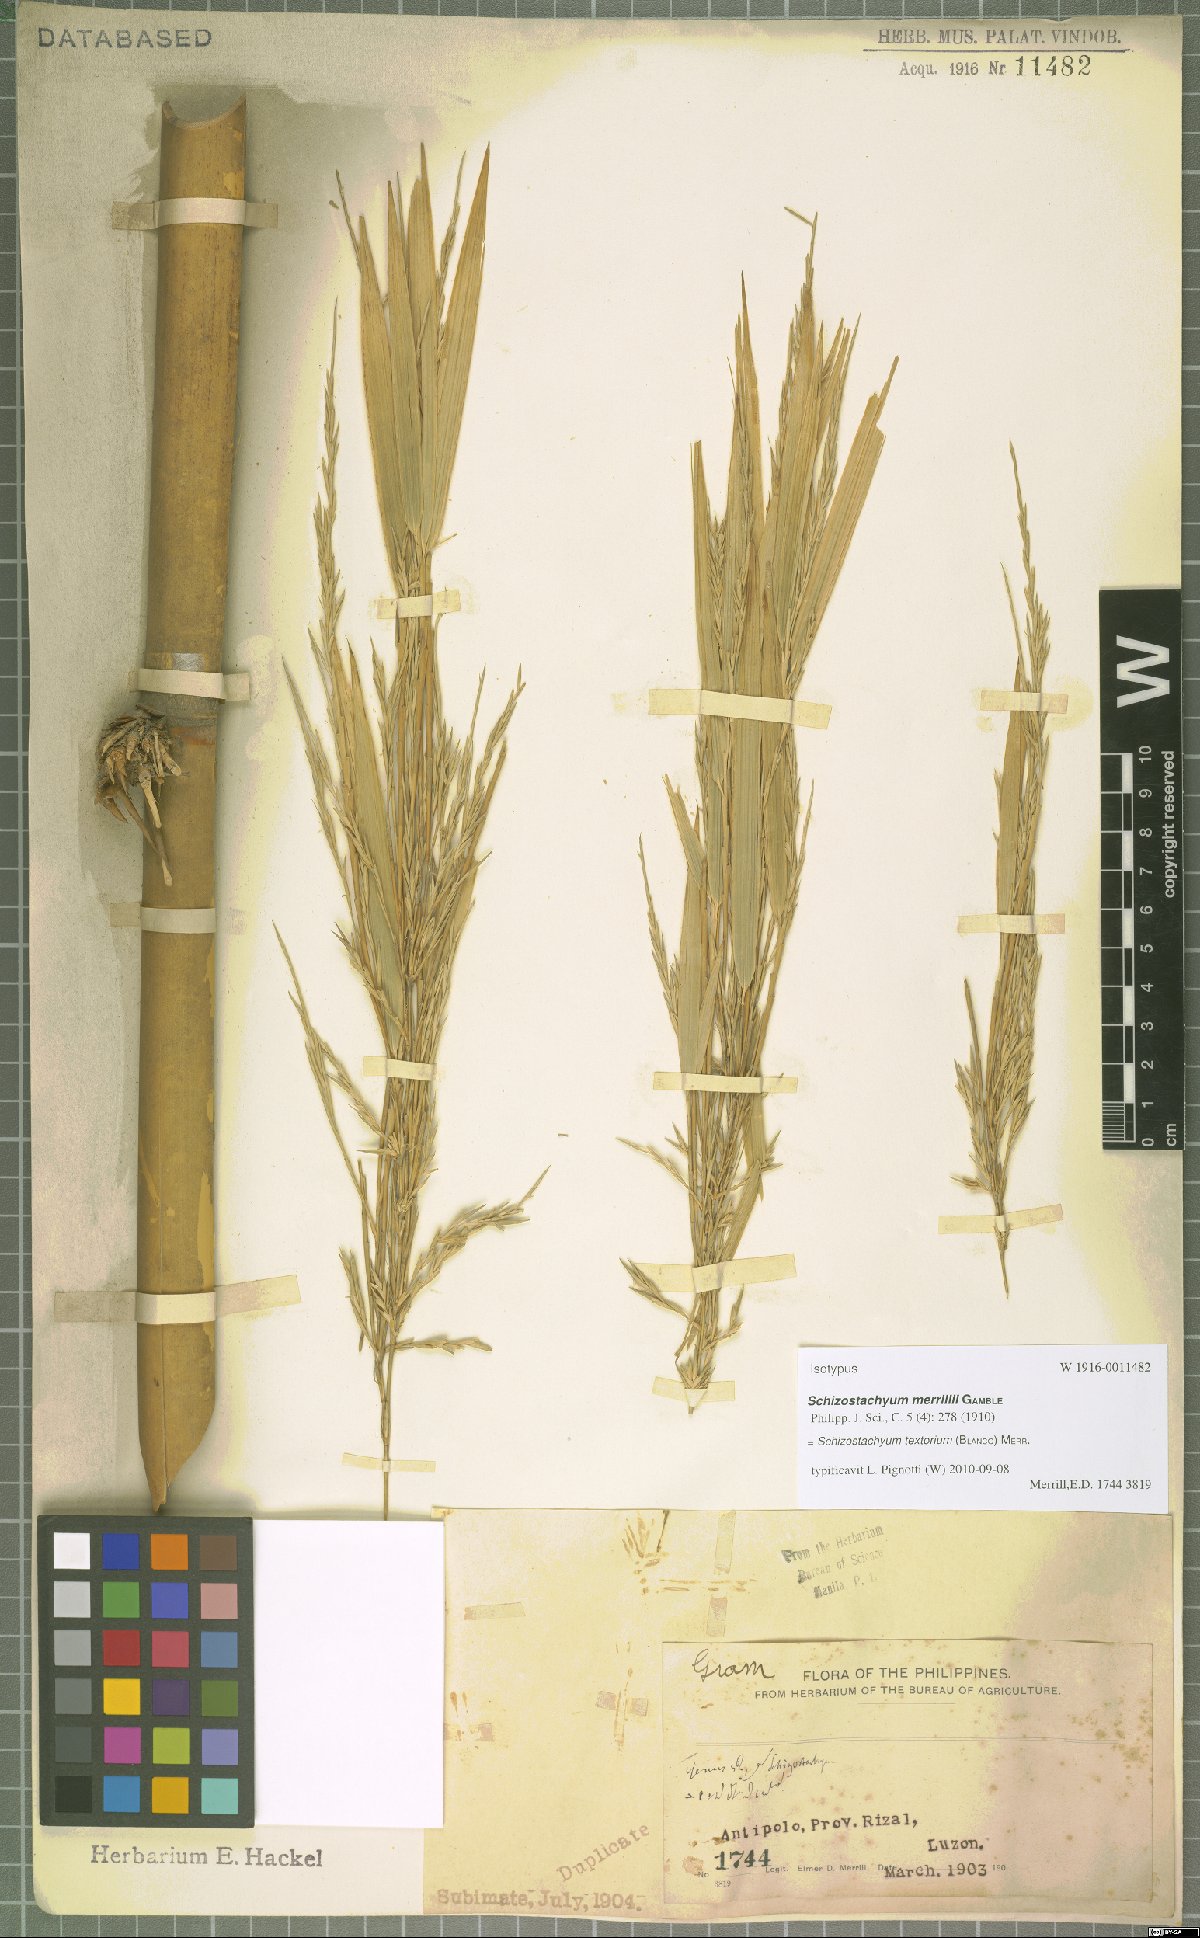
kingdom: Plantae
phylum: Tracheophyta
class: Liliopsida
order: Poales
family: Poaceae
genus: Schizostachyum
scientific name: Schizostachyum textorium
